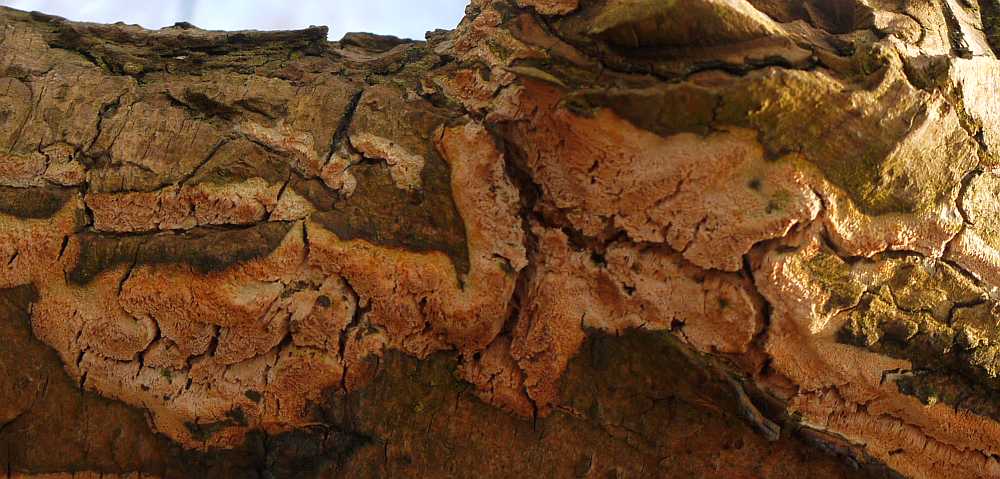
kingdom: Fungi
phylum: Basidiomycota
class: Agaricomycetes
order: Polyporales
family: Irpicaceae
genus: Resiniporus
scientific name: Resiniporus resinascens
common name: trist pastelporesvamp
